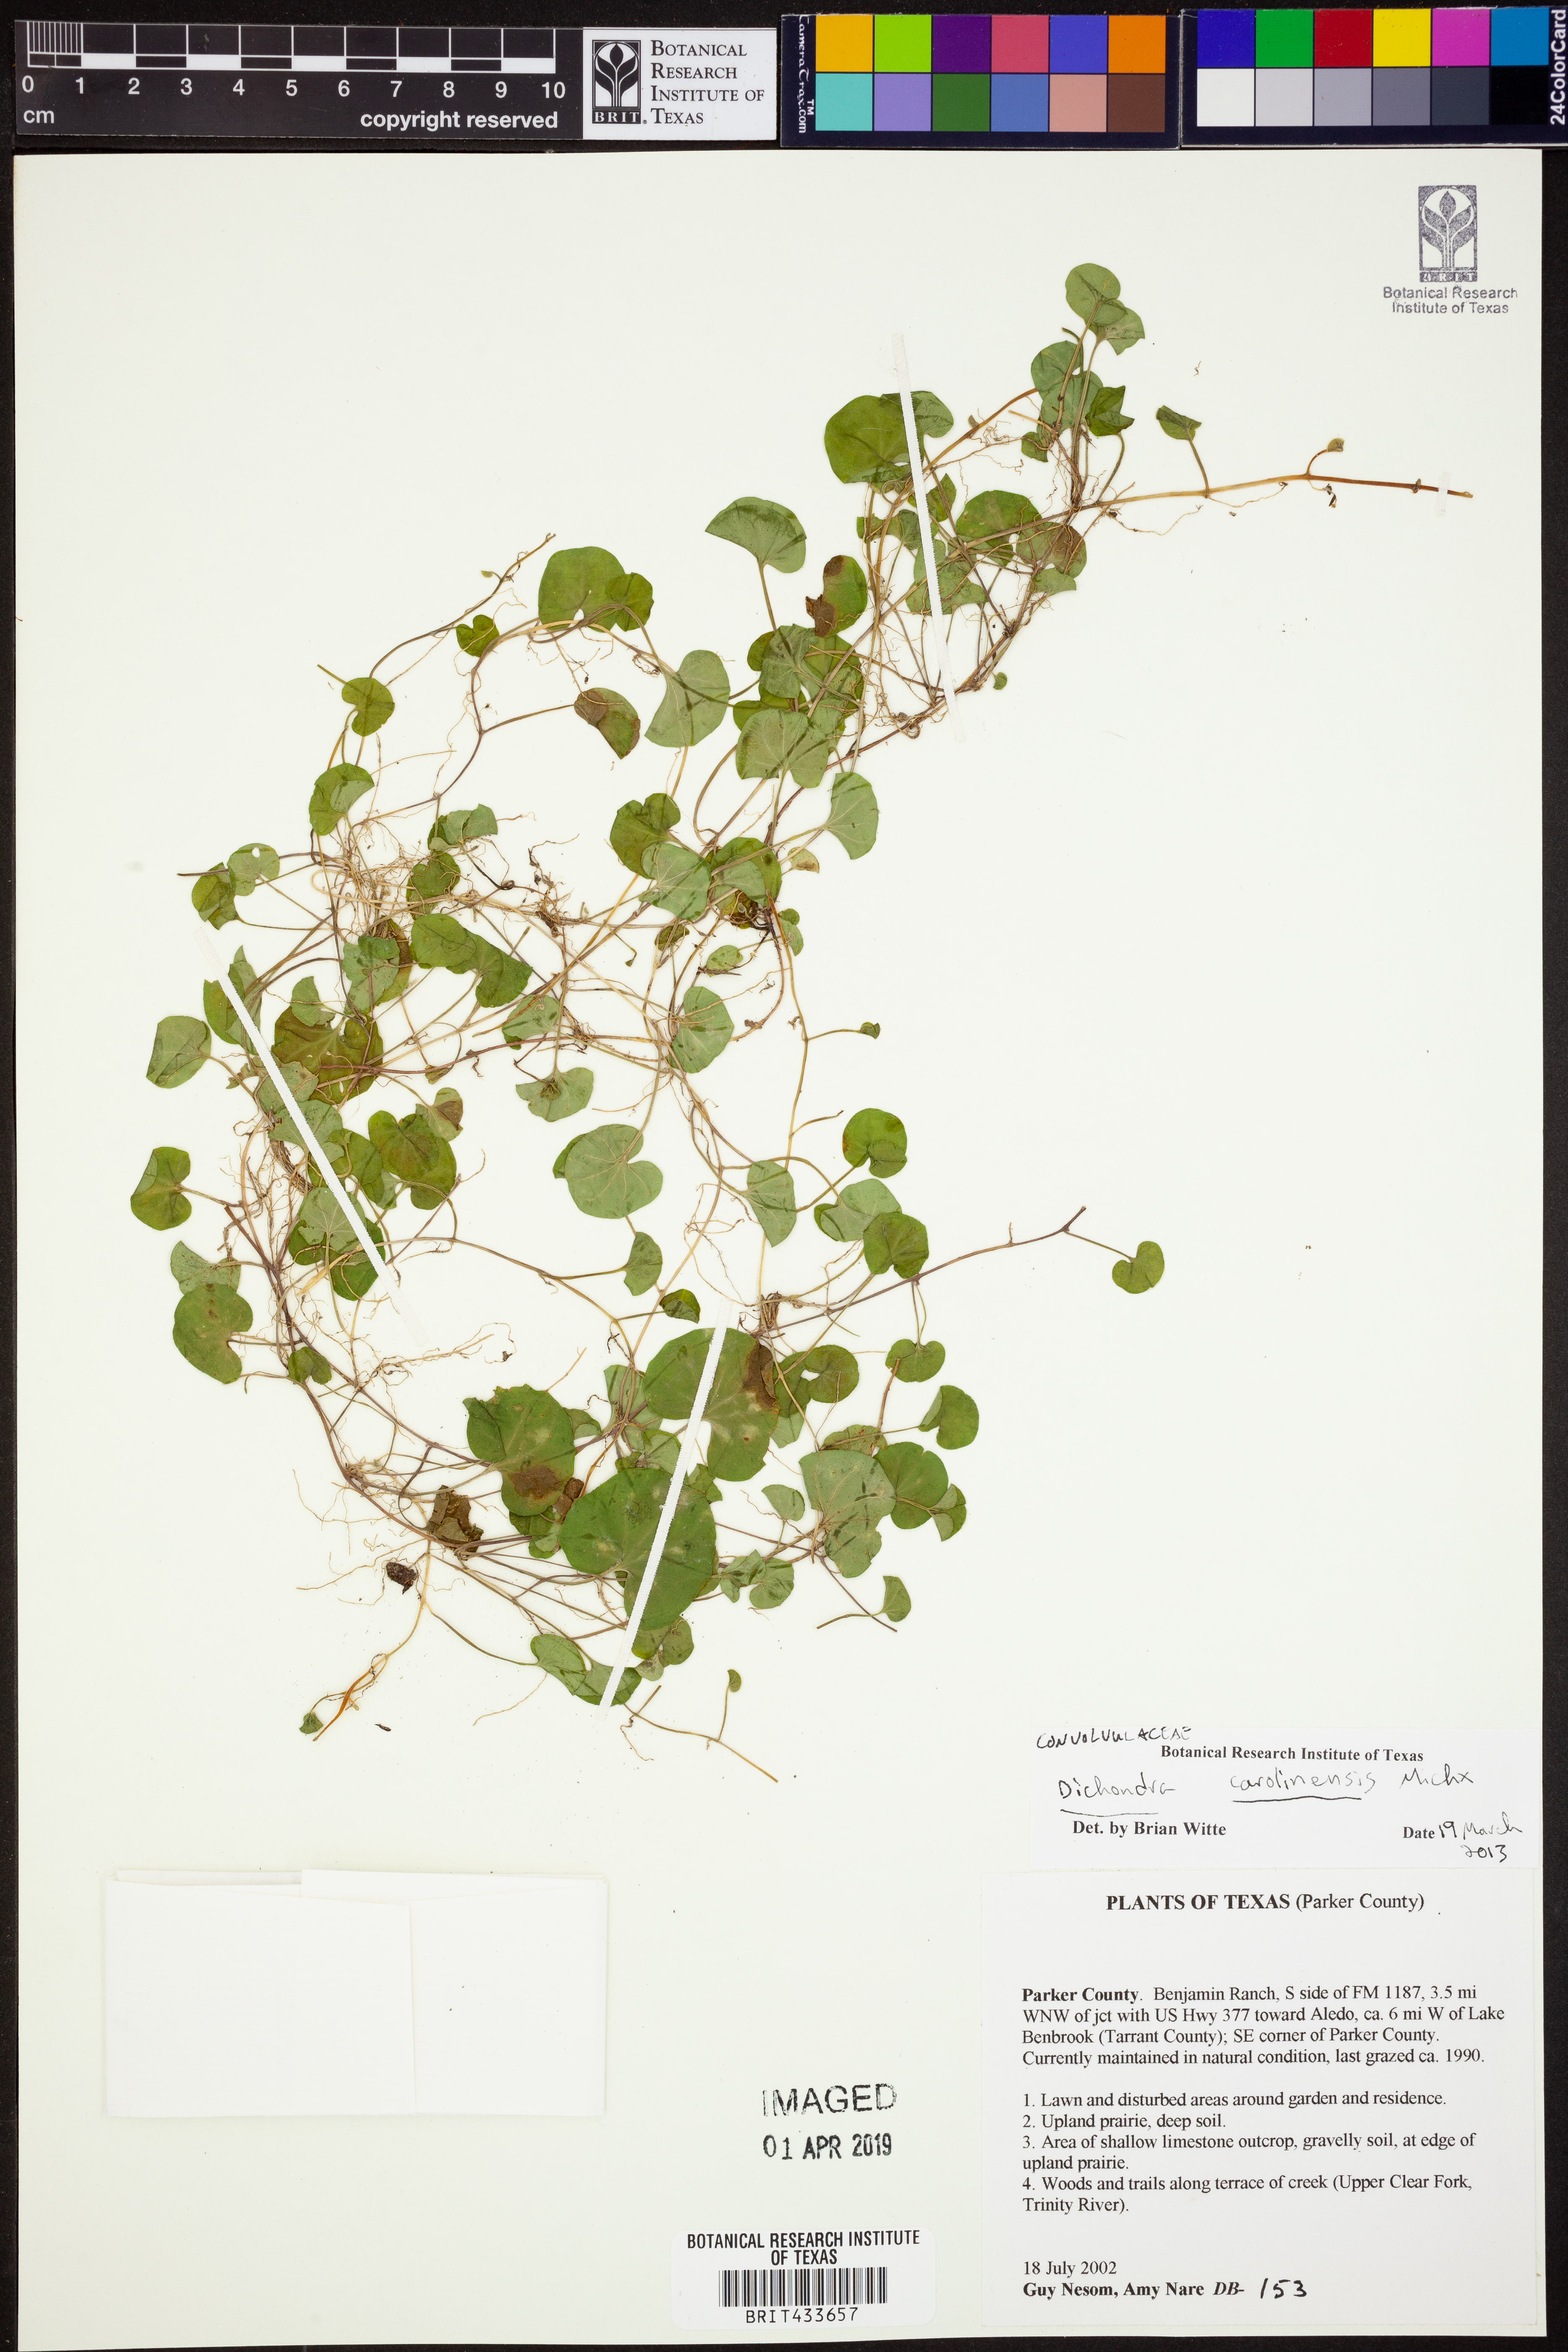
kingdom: Plantae
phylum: Tracheophyta
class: Magnoliopsida
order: Solanales
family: Convolvulaceae
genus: Dichondra
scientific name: Dichondra carolinensis
